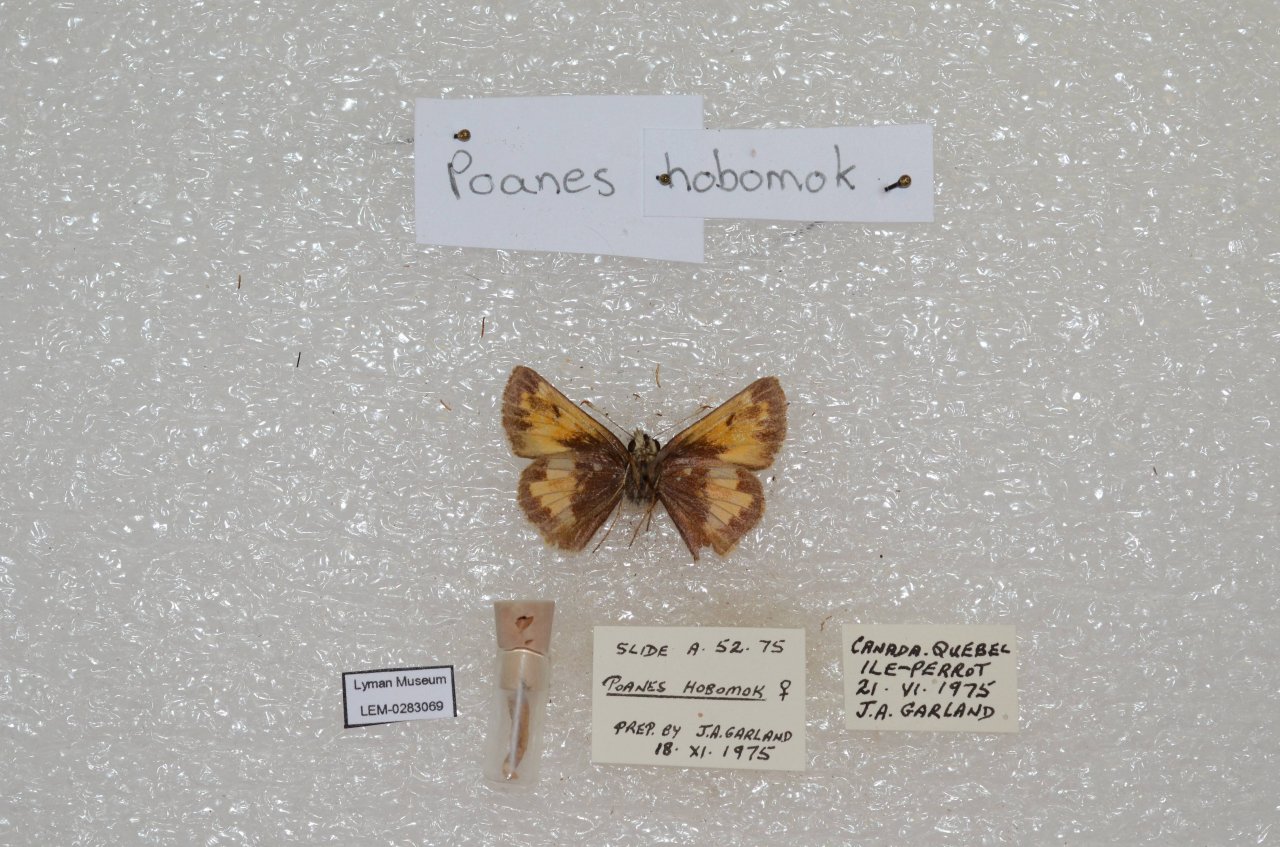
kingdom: Animalia
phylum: Arthropoda
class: Insecta
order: Lepidoptera
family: Hesperiidae
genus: Lon
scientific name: Lon hobomok
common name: Hobomok Skipper
